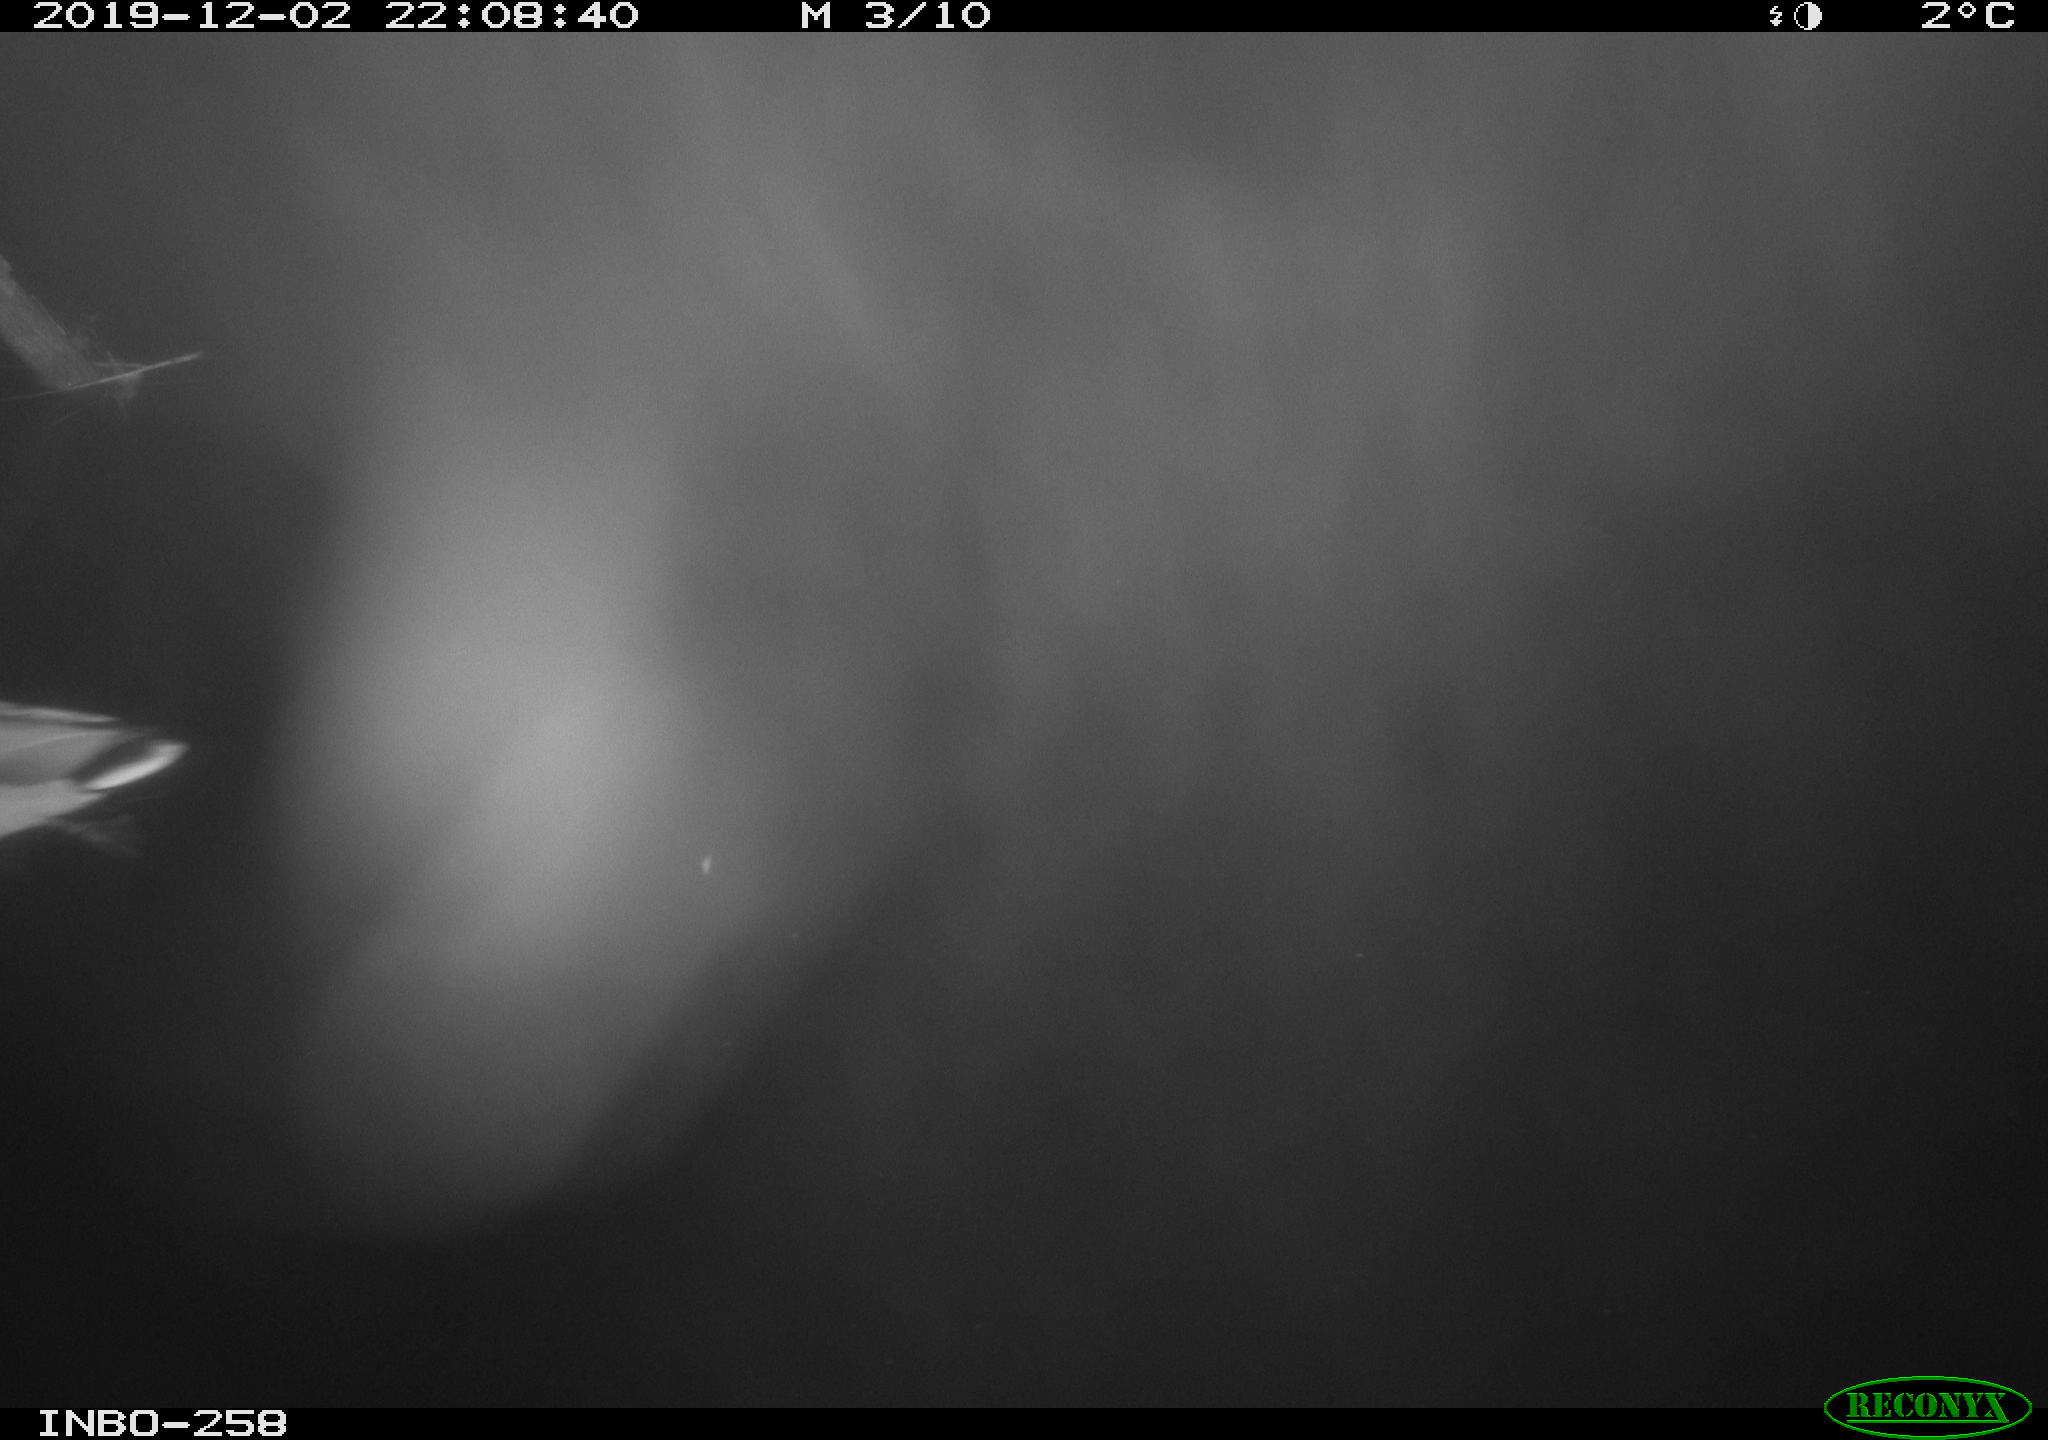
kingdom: Animalia
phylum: Chordata
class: Aves
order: Anseriformes
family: Anatidae
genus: Anas
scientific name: Anas platyrhynchos
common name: Mallard
